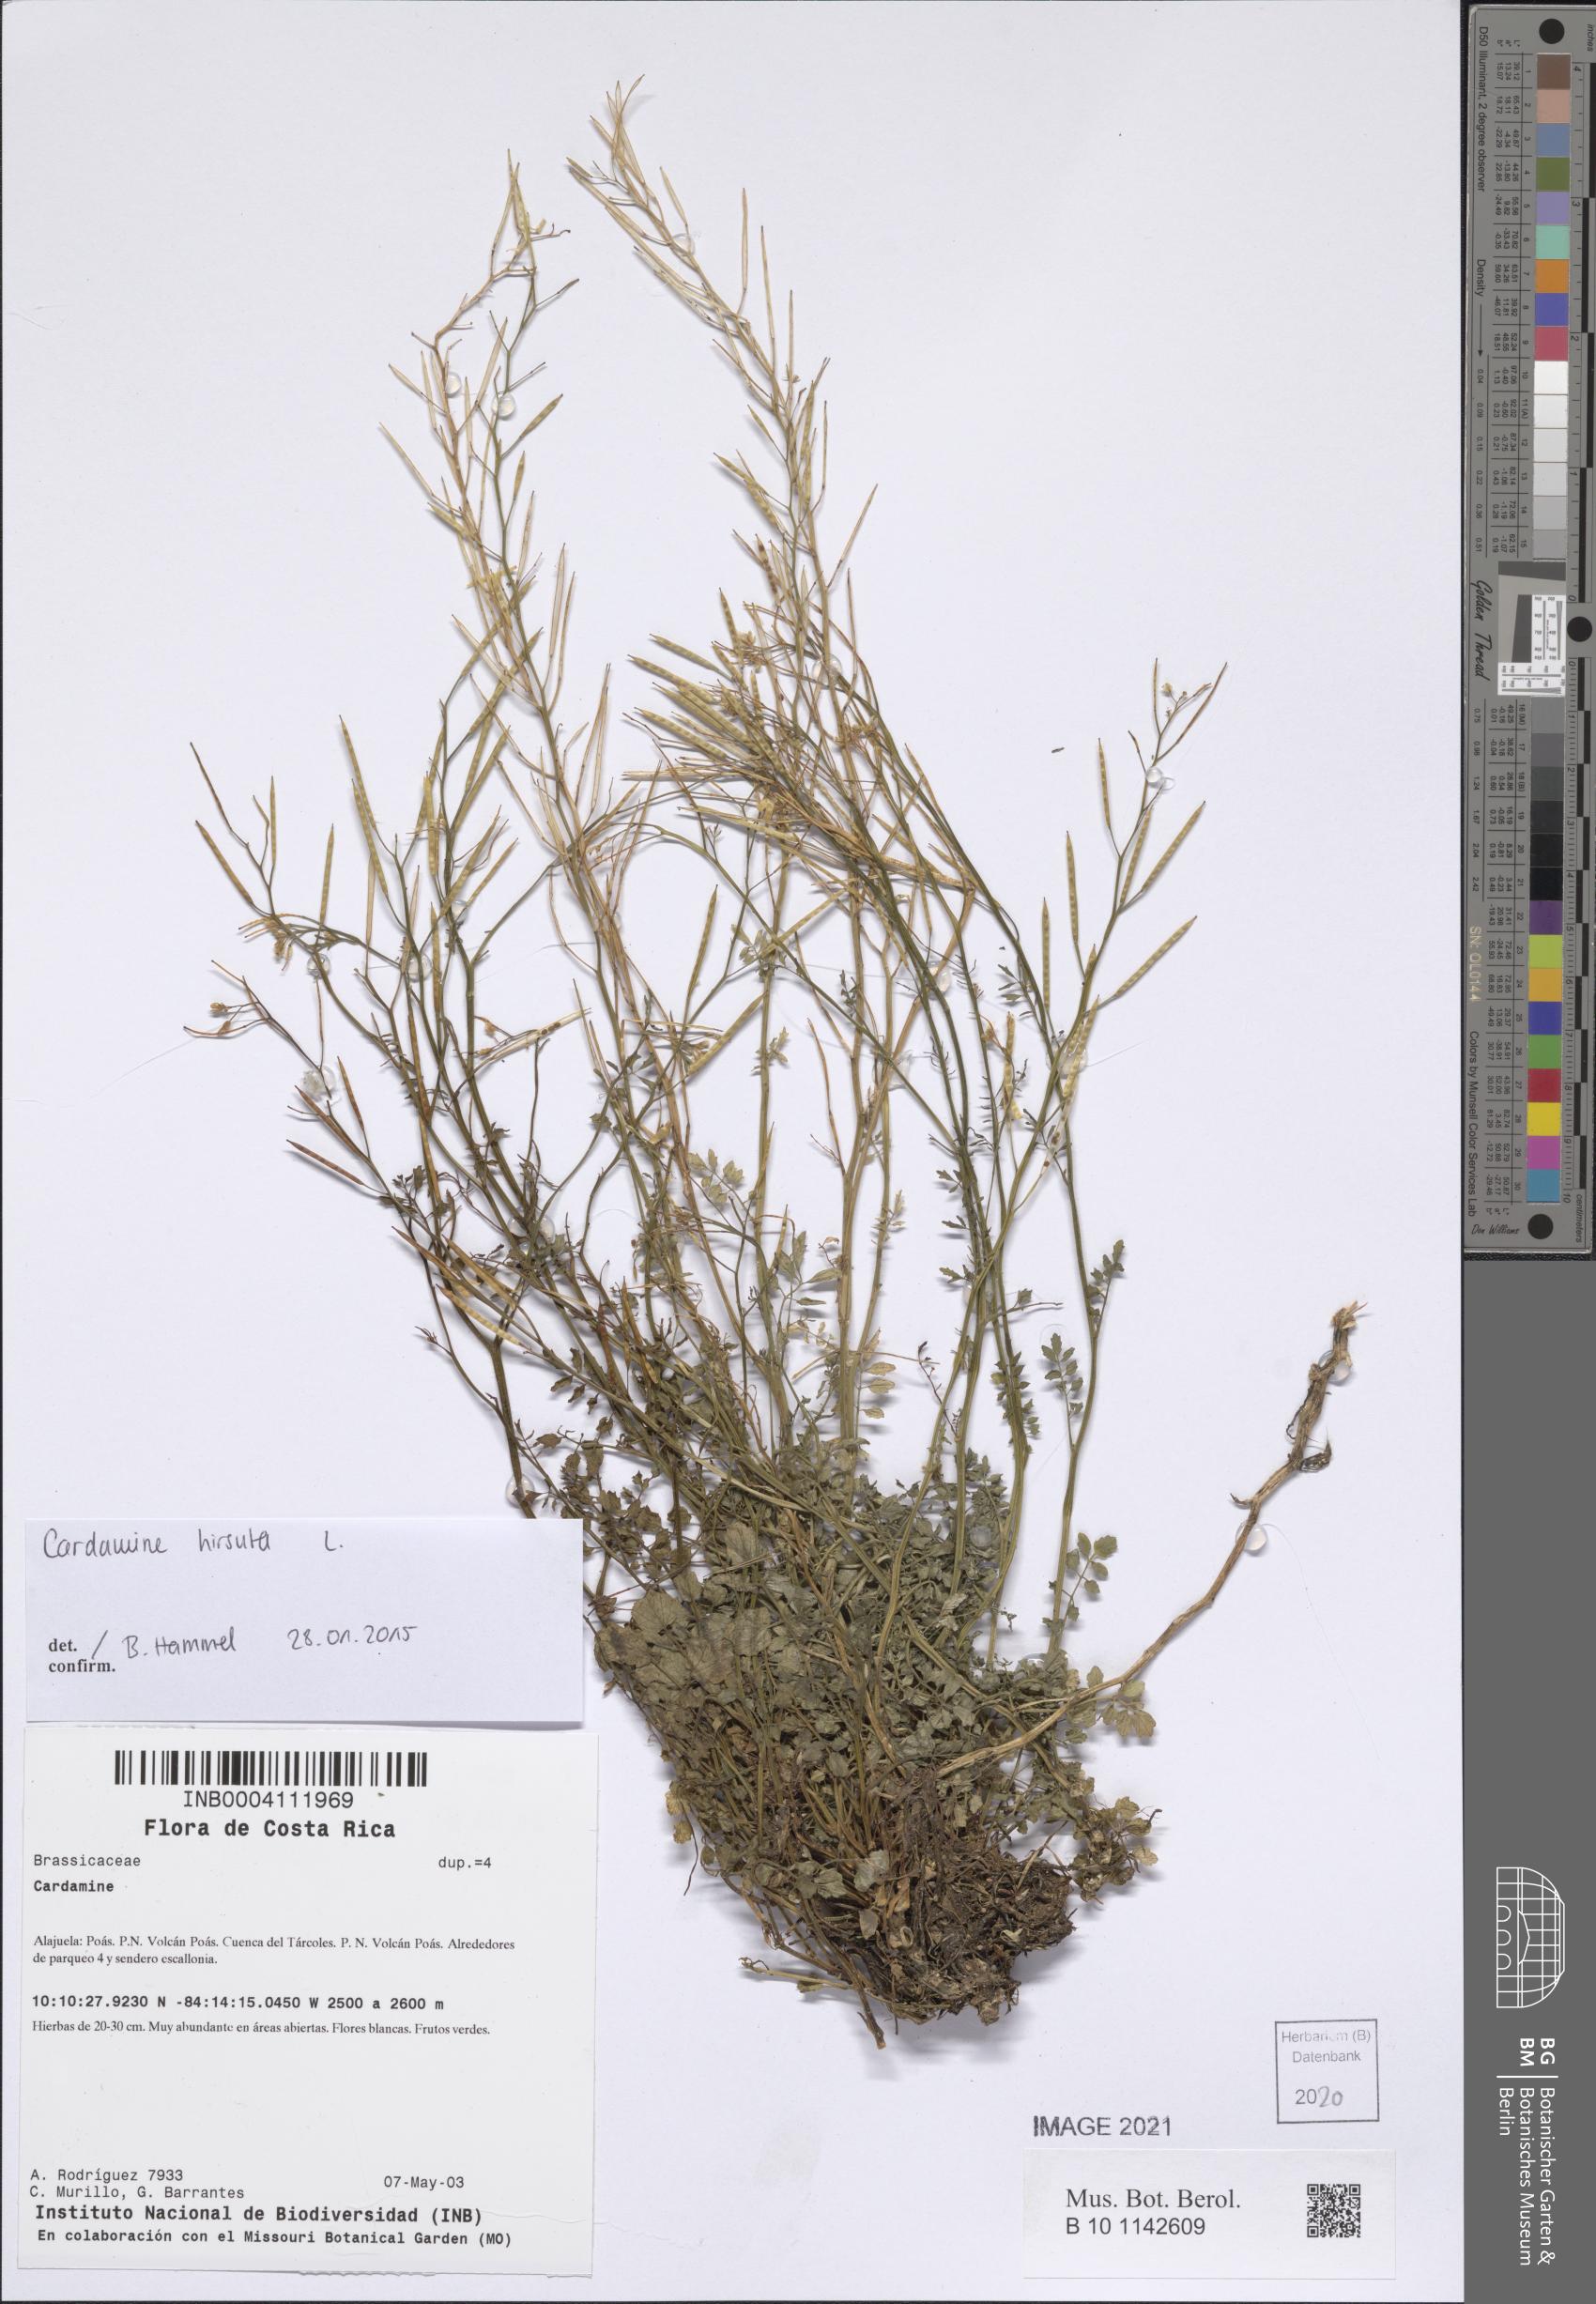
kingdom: Plantae
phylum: Tracheophyta
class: Magnoliopsida
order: Brassicales
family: Brassicaceae
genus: Cardamine
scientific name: Cardamine hirsuta
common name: Hairy bittercress
